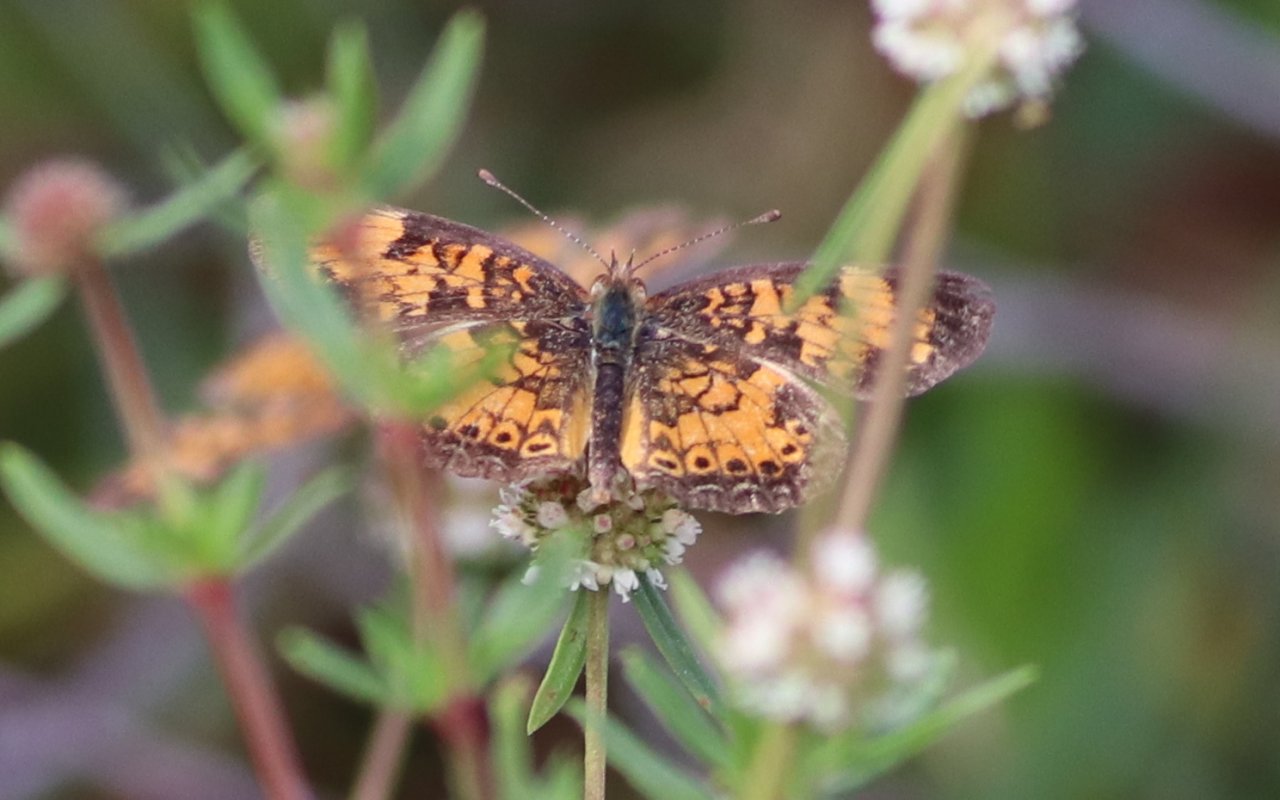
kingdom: Animalia
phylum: Arthropoda
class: Insecta
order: Lepidoptera
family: Nymphalidae
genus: Phyciodes
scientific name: Phyciodes tharos
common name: Pearl Crescent
